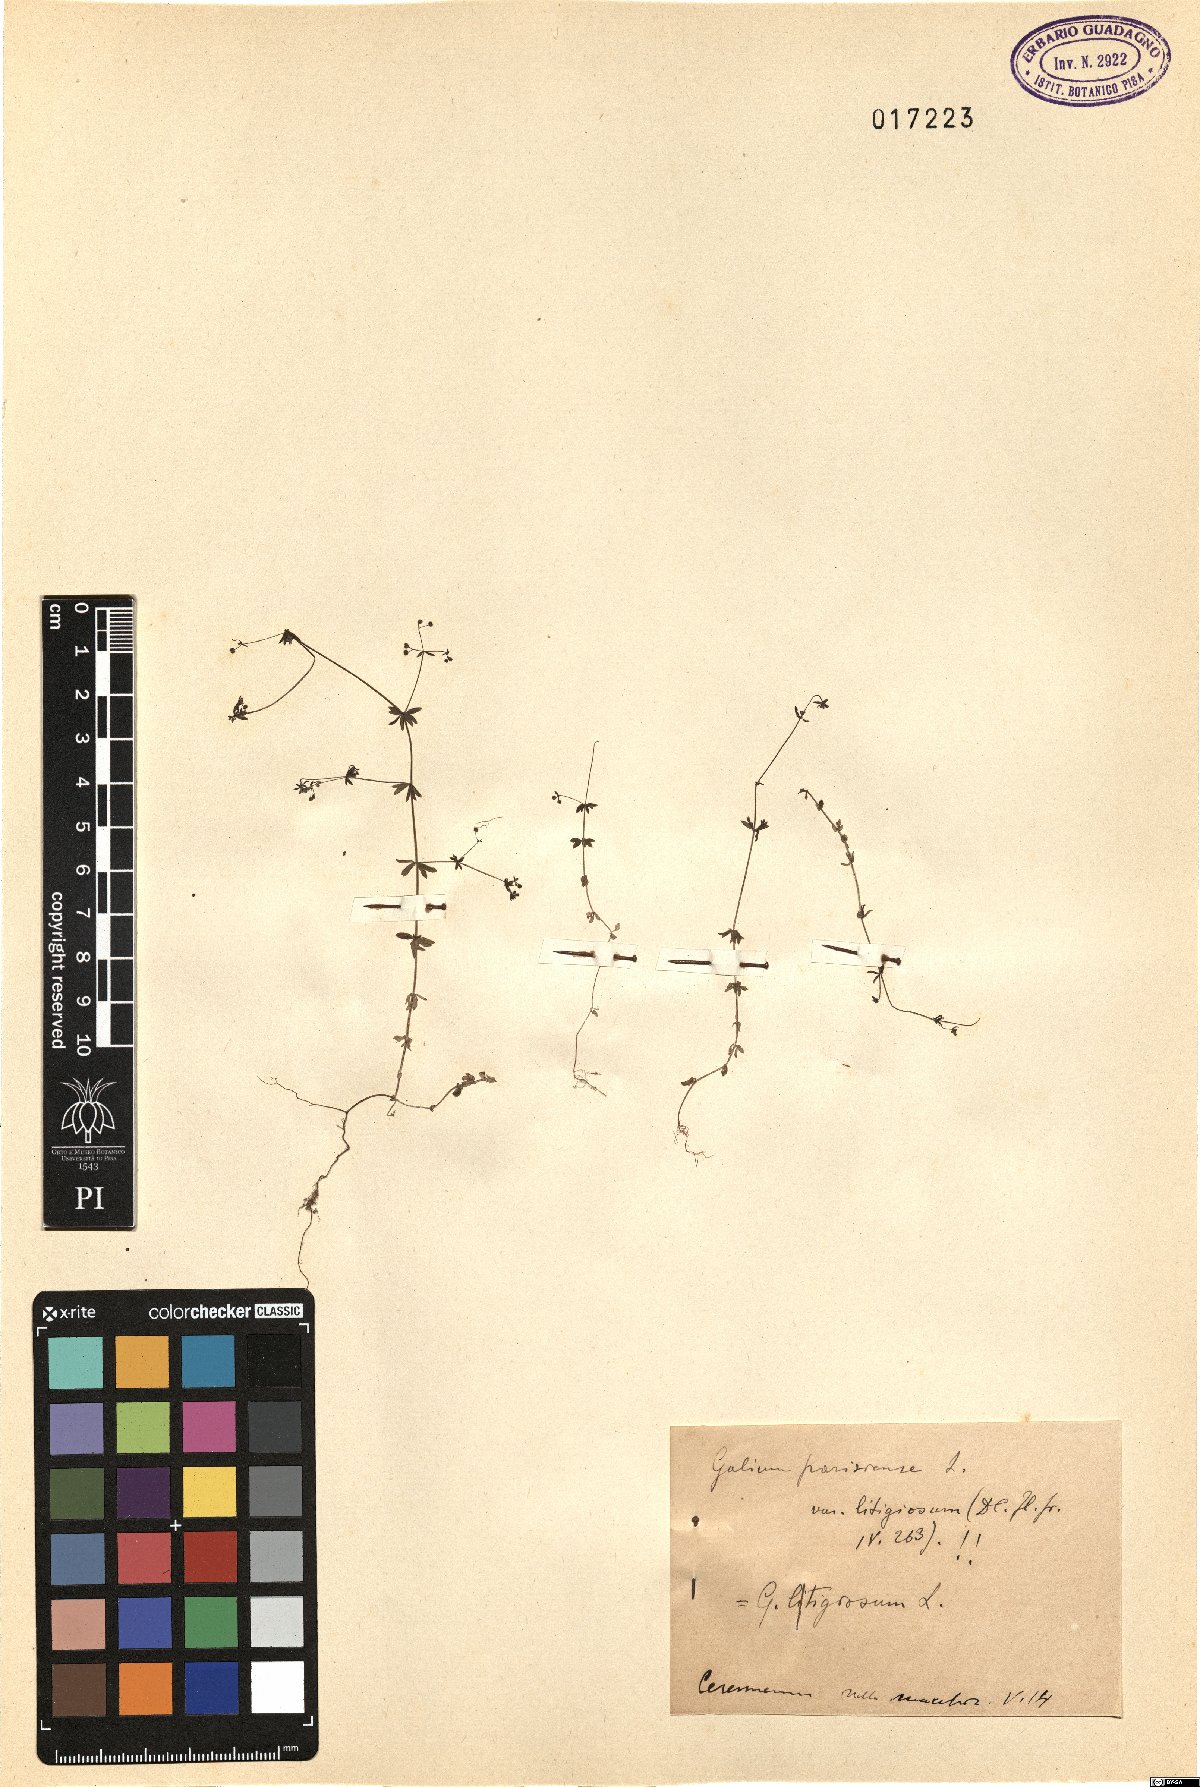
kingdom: Plantae
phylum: Tracheophyta
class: Magnoliopsida
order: Gentianales
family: Rubiaceae
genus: Galium
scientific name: Galium parisiense
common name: Wall bedstraw
